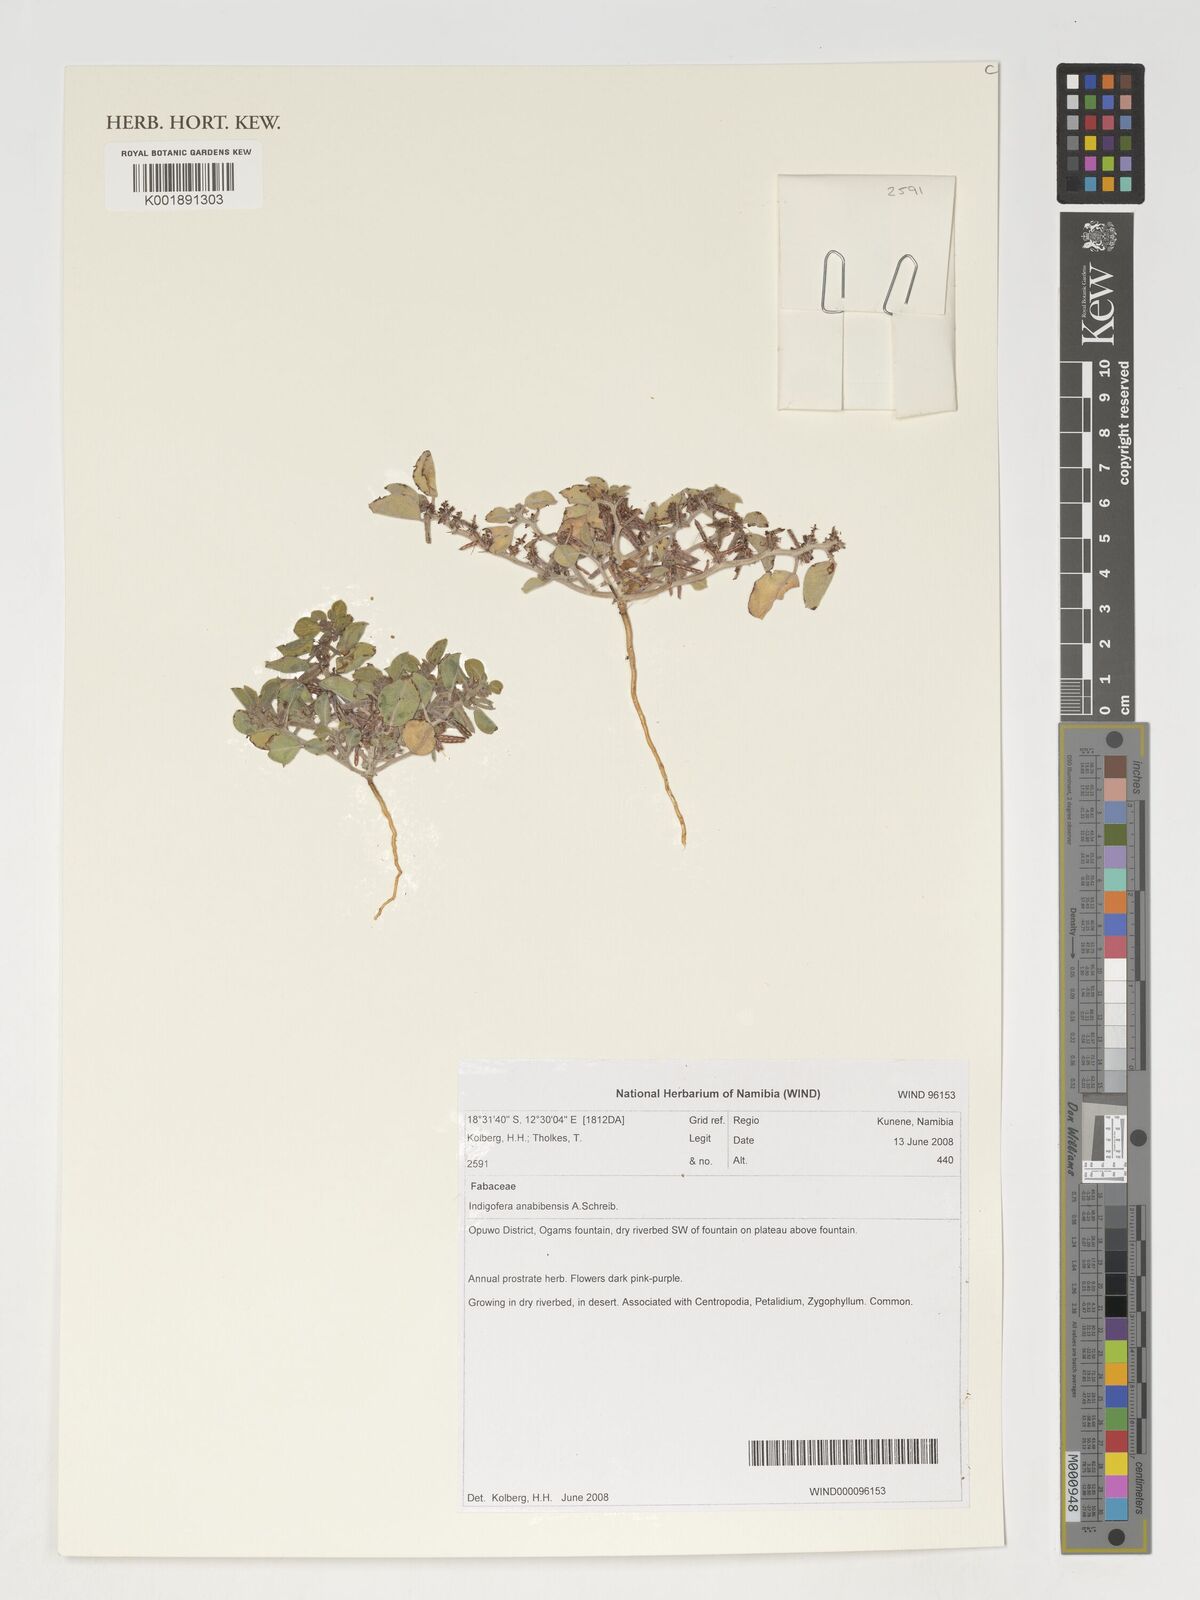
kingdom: Plantae
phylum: Tracheophyta
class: Magnoliopsida
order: Fabales
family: Fabaceae
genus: Indigofera
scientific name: Indigofera anabibensis
